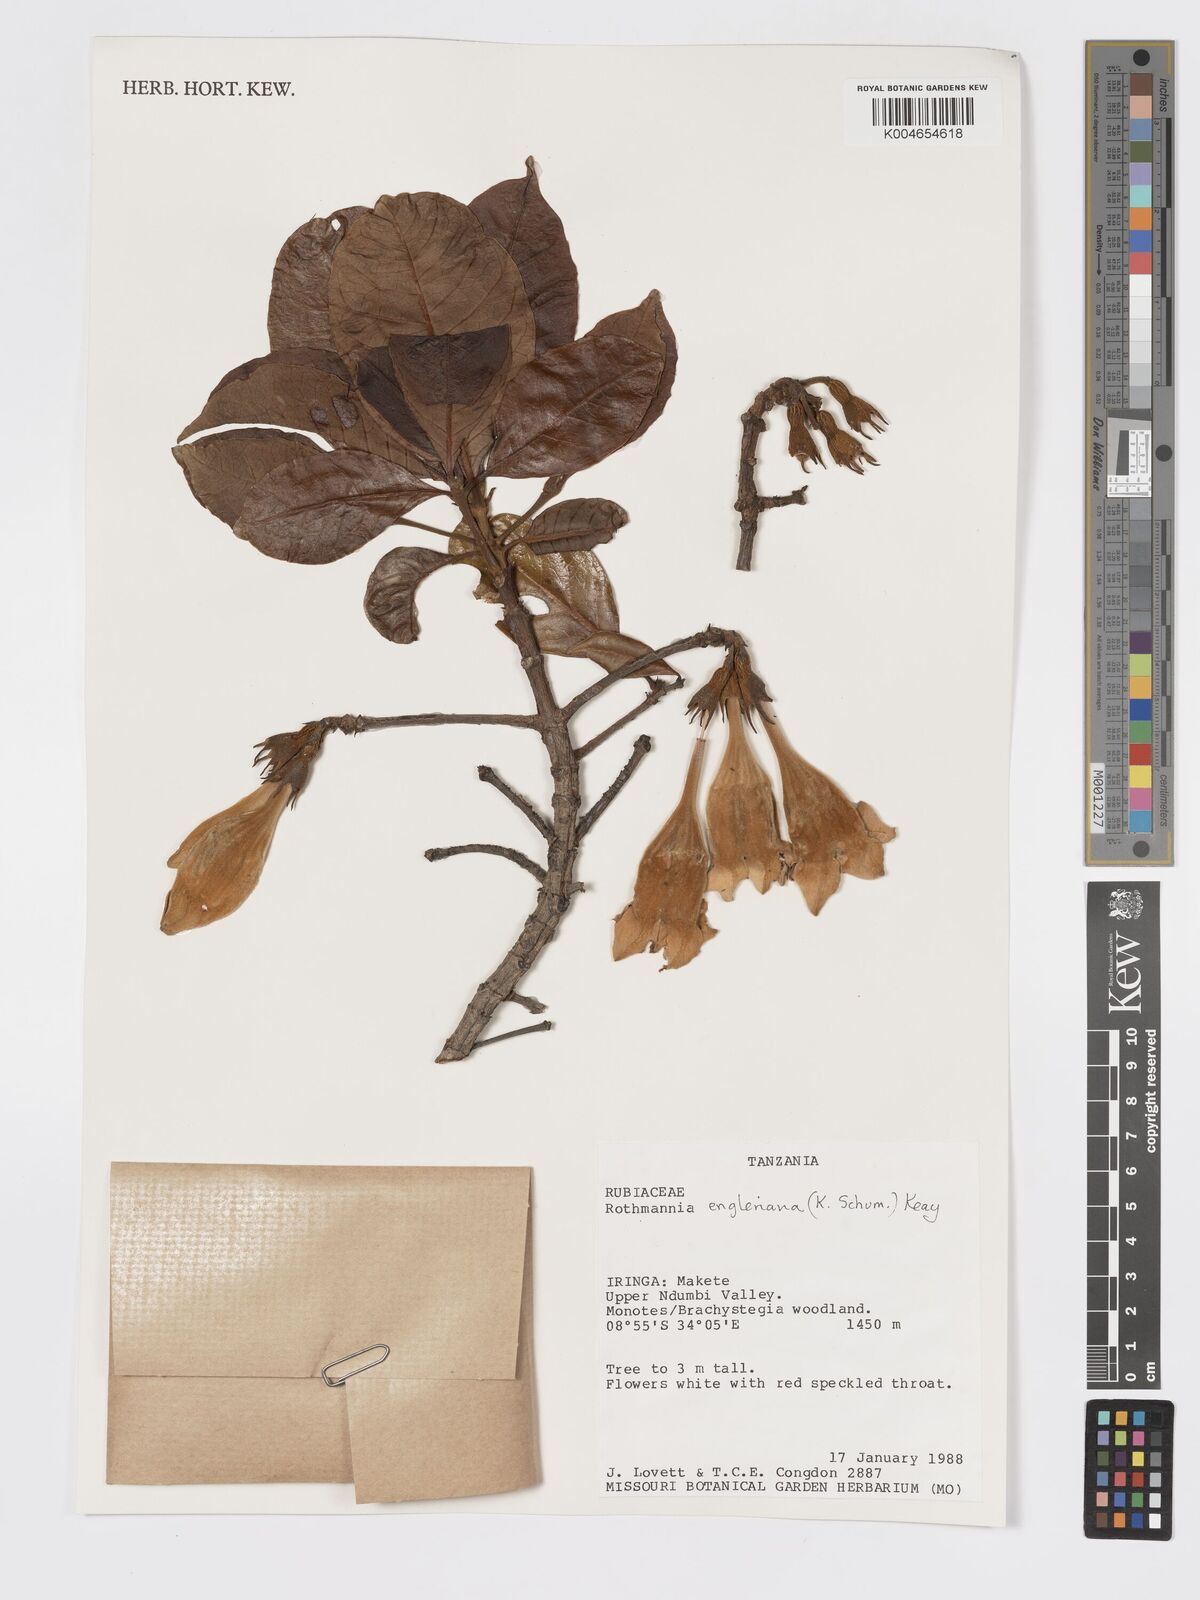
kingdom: Plantae
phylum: Tracheophyta
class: Magnoliopsida
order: Gentianales
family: Rubiaceae
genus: Rothmannia
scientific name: Rothmannia engleriana
